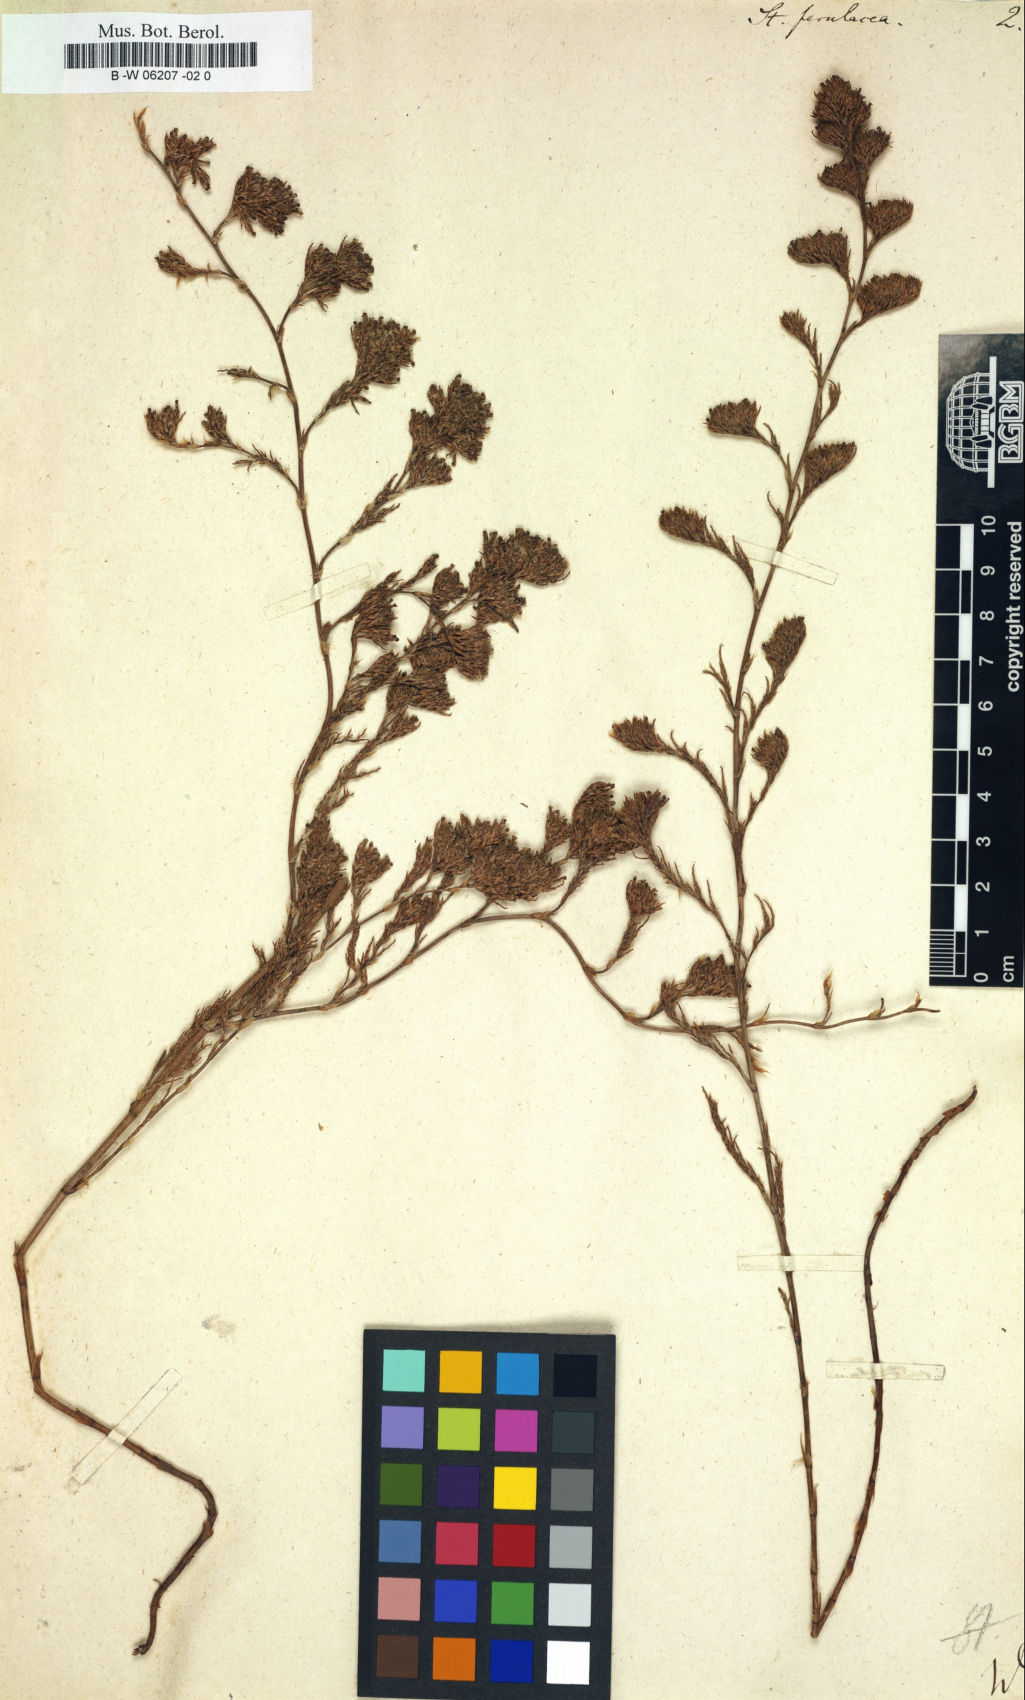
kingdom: Plantae
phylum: Tracheophyta
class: Magnoliopsida
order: Caryophyllales
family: Plumbaginaceae
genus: Myriolimon
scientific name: Myriolimon ferulaceum
